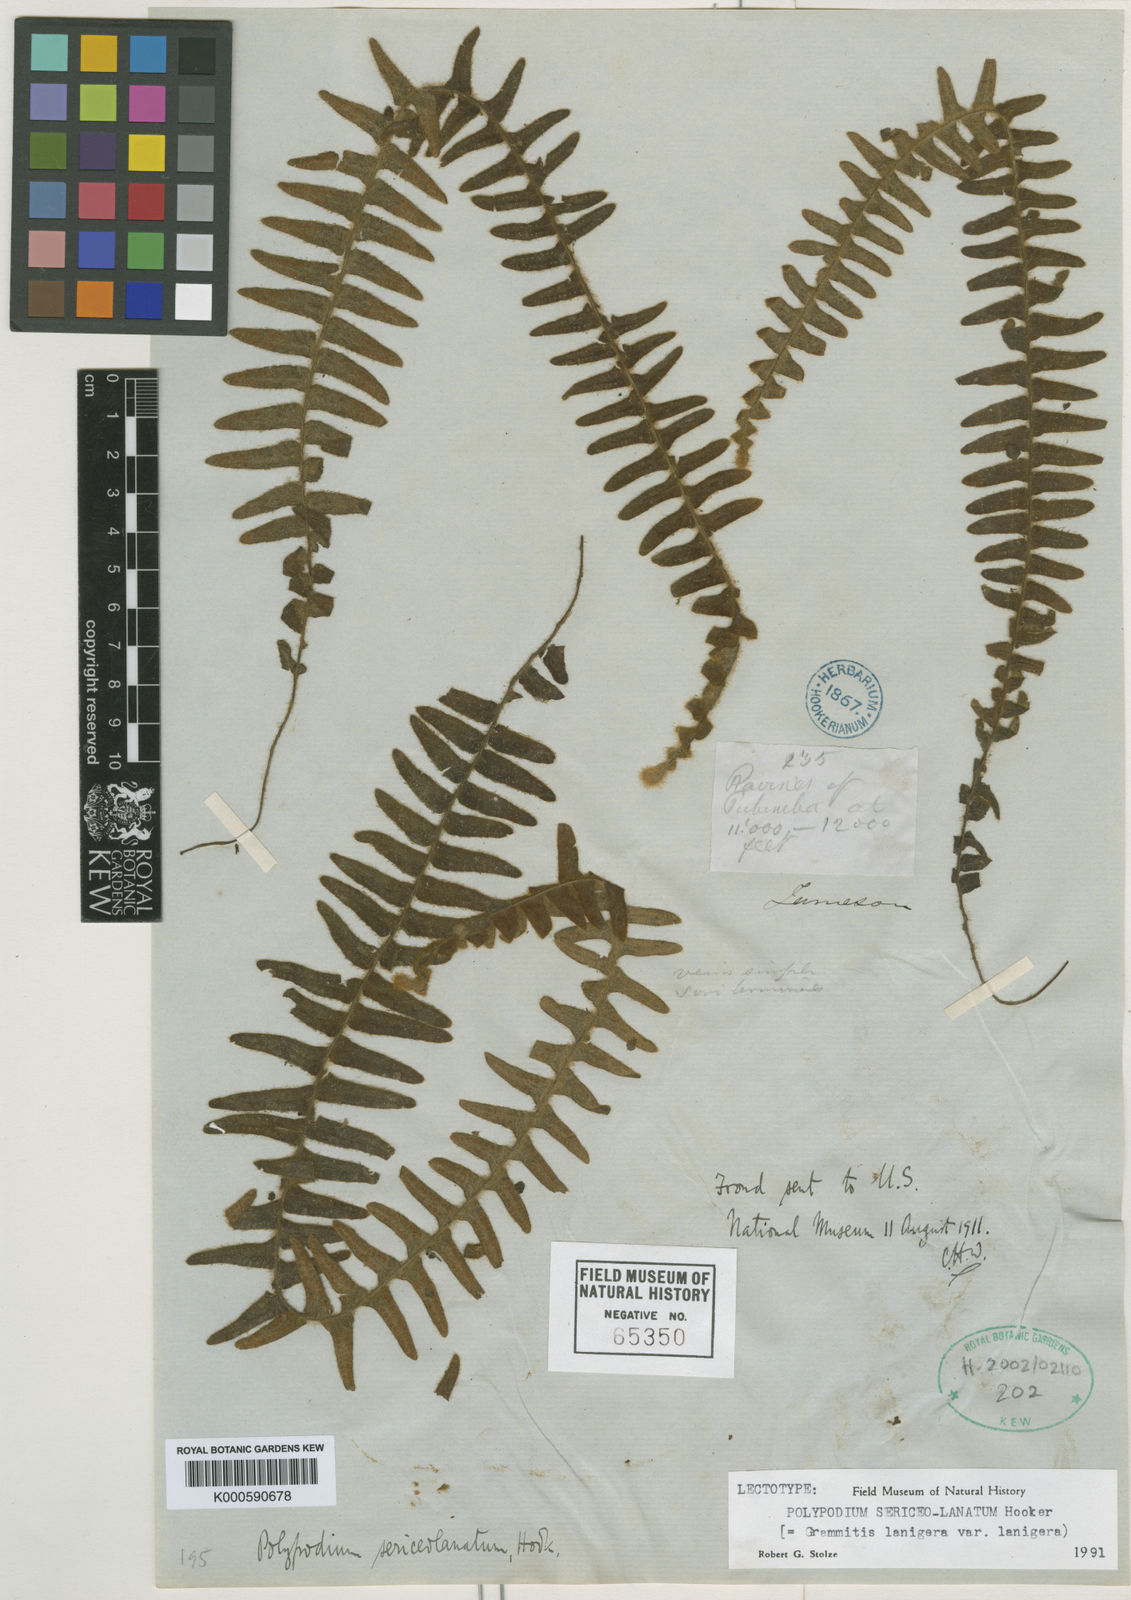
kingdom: Plantae
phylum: Tracheophyta
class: Polypodiopsida
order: Polypodiales
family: Polypodiaceae
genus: Terpsichore
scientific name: Terpsichore
